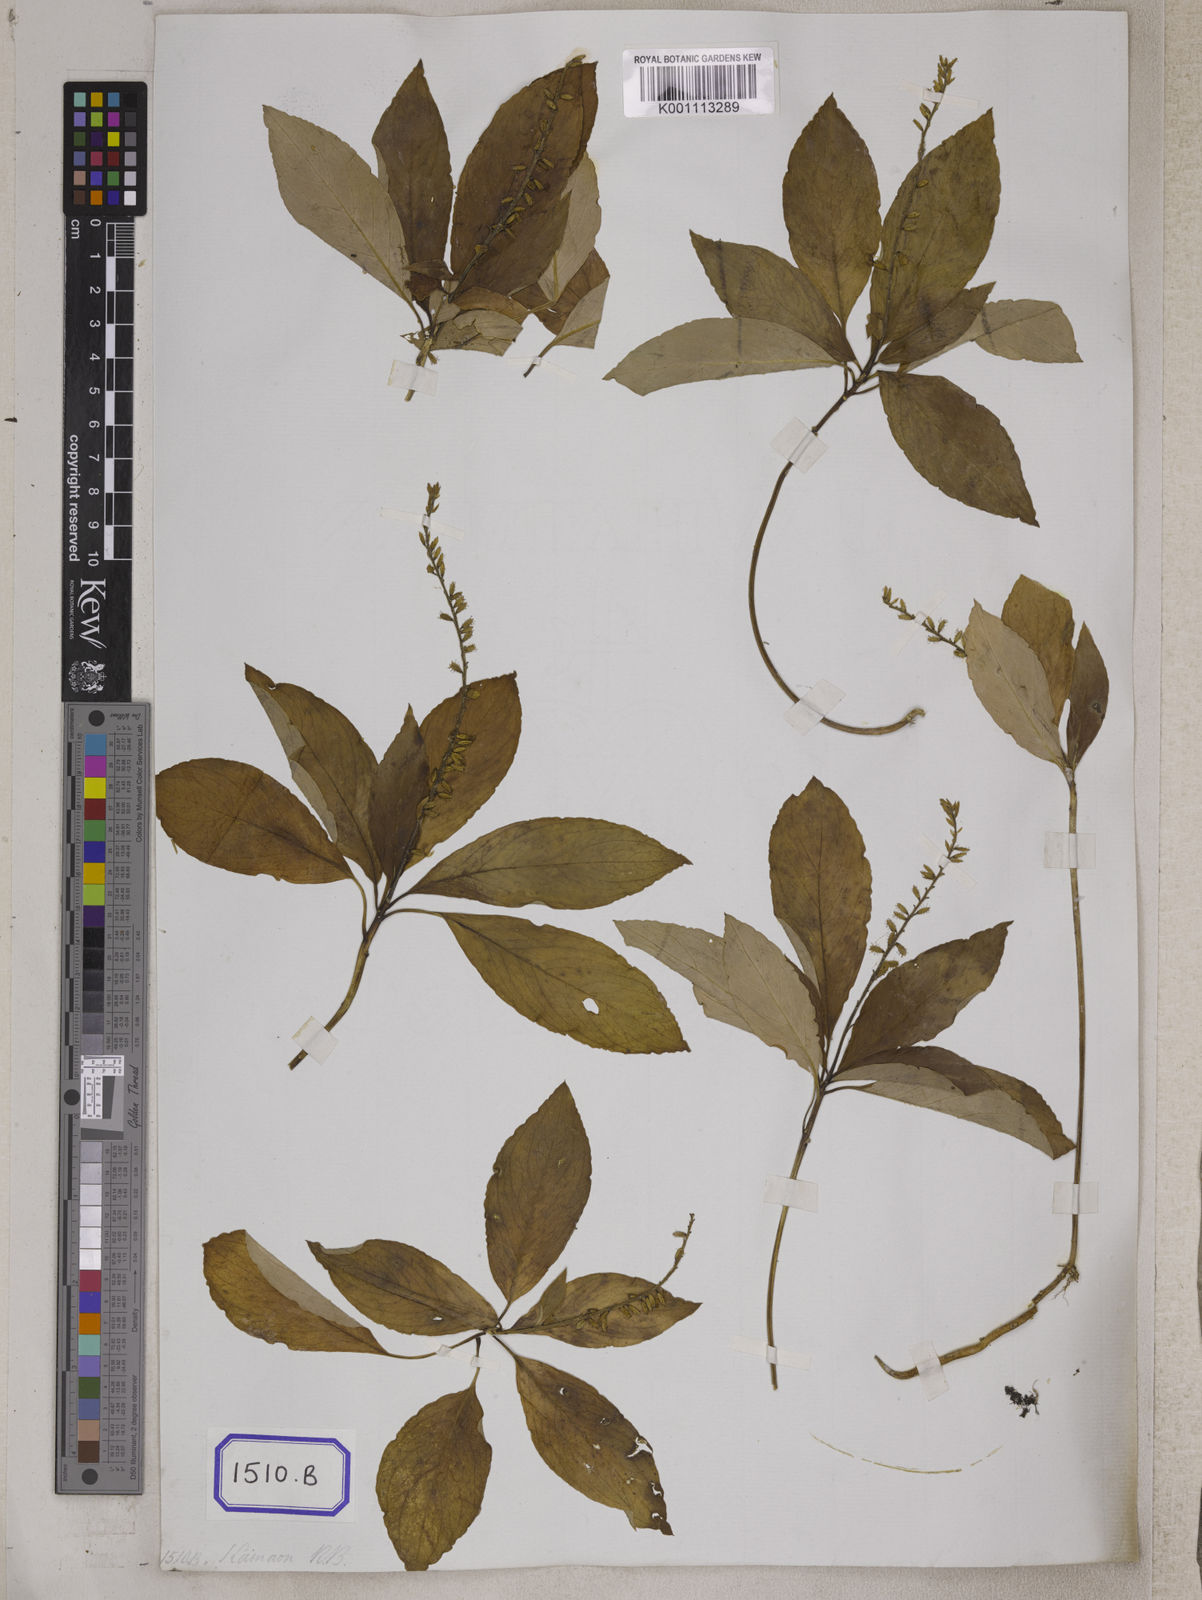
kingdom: Plantae
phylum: Tracheophyta
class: Magnoliopsida
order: Malpighiales
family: Linaceae
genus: Anisadenia
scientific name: Anisadenia
